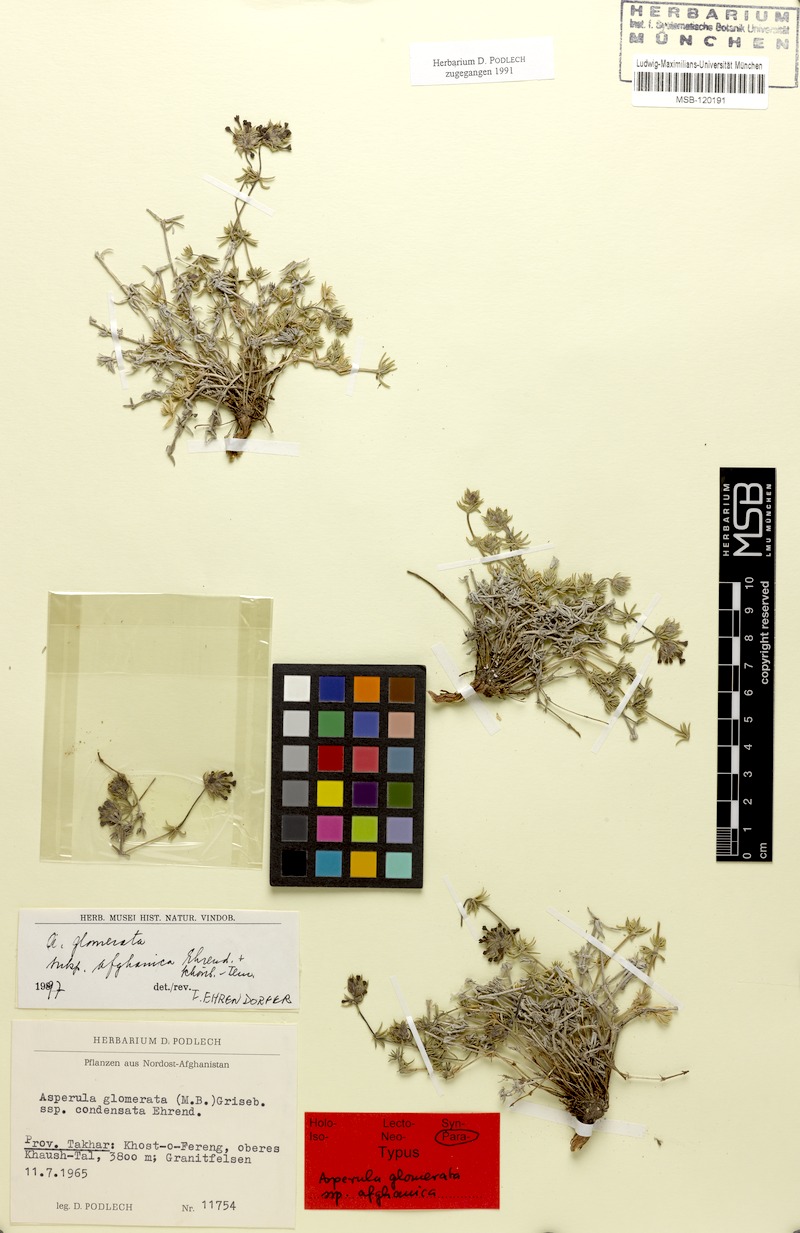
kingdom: Plantae
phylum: Tracheophyta
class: Magnoliopsida
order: Gentianales
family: Rubiaceae
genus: Asperula
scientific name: Asperula glomerata
